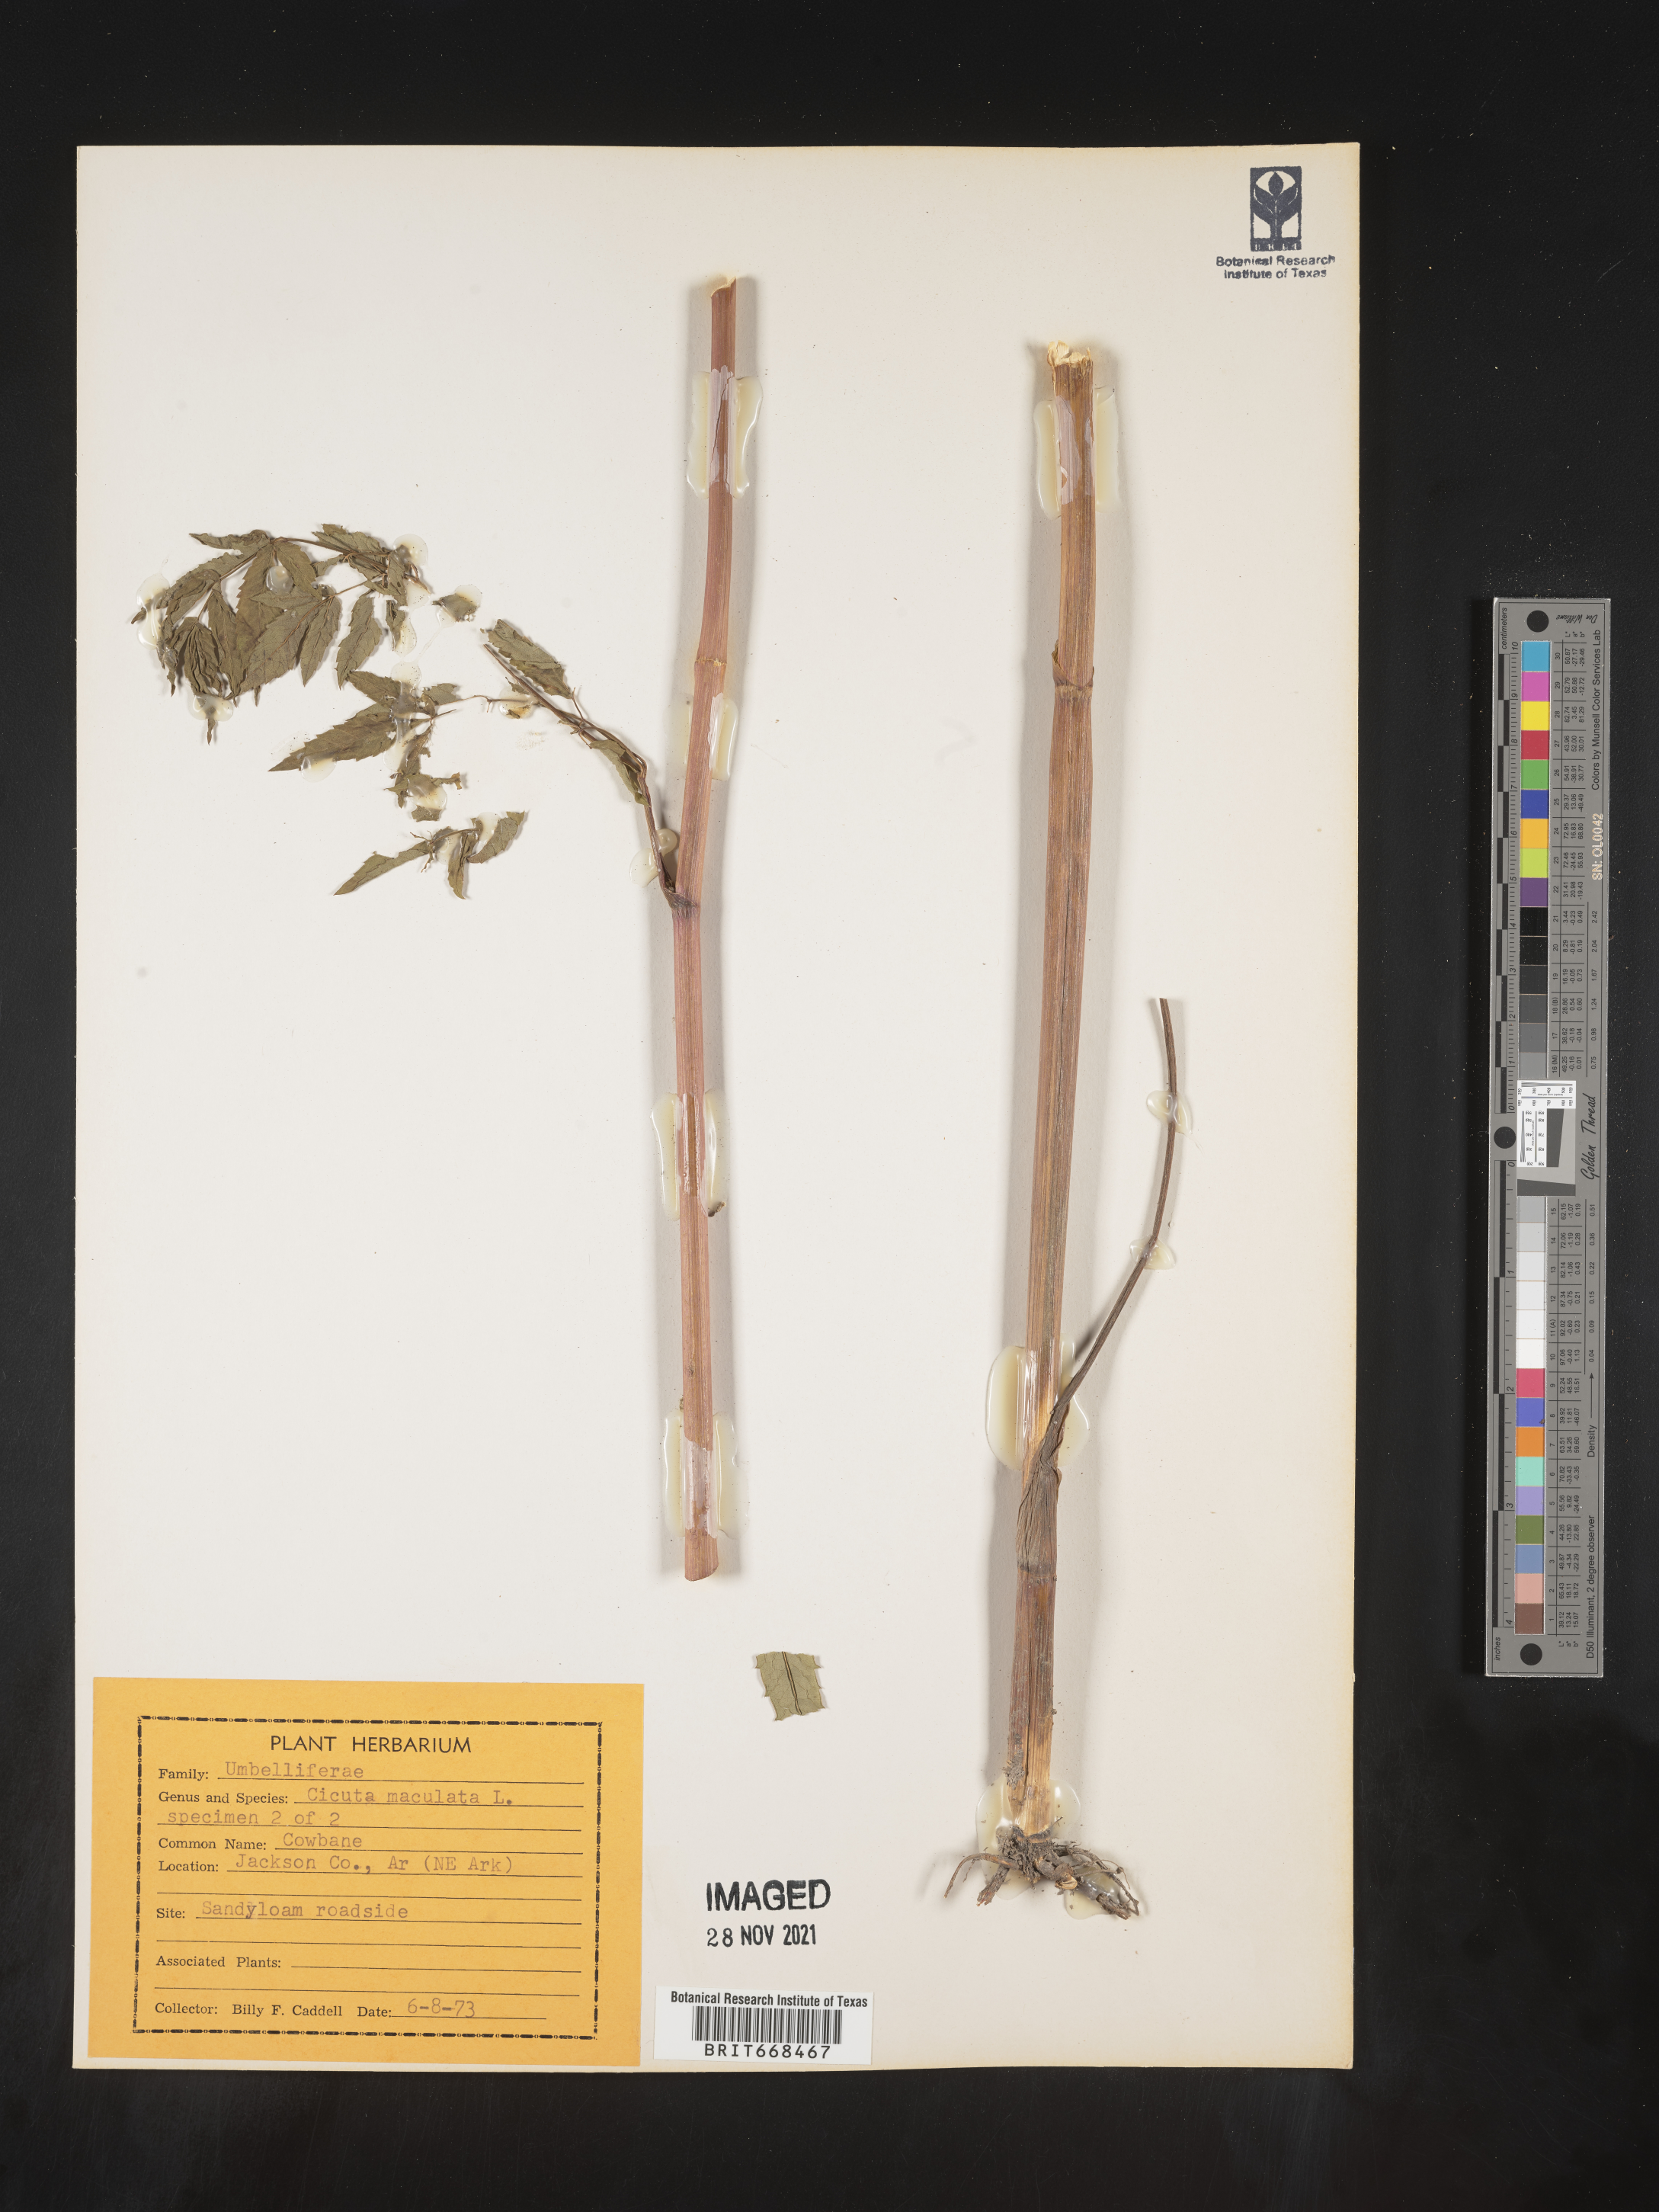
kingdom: Plantae
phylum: Tracheophyta
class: Magnoliopsida
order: Apiales
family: Apiaceae
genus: Cicuta
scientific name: Cicuta maculata
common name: Spotted cowbane
